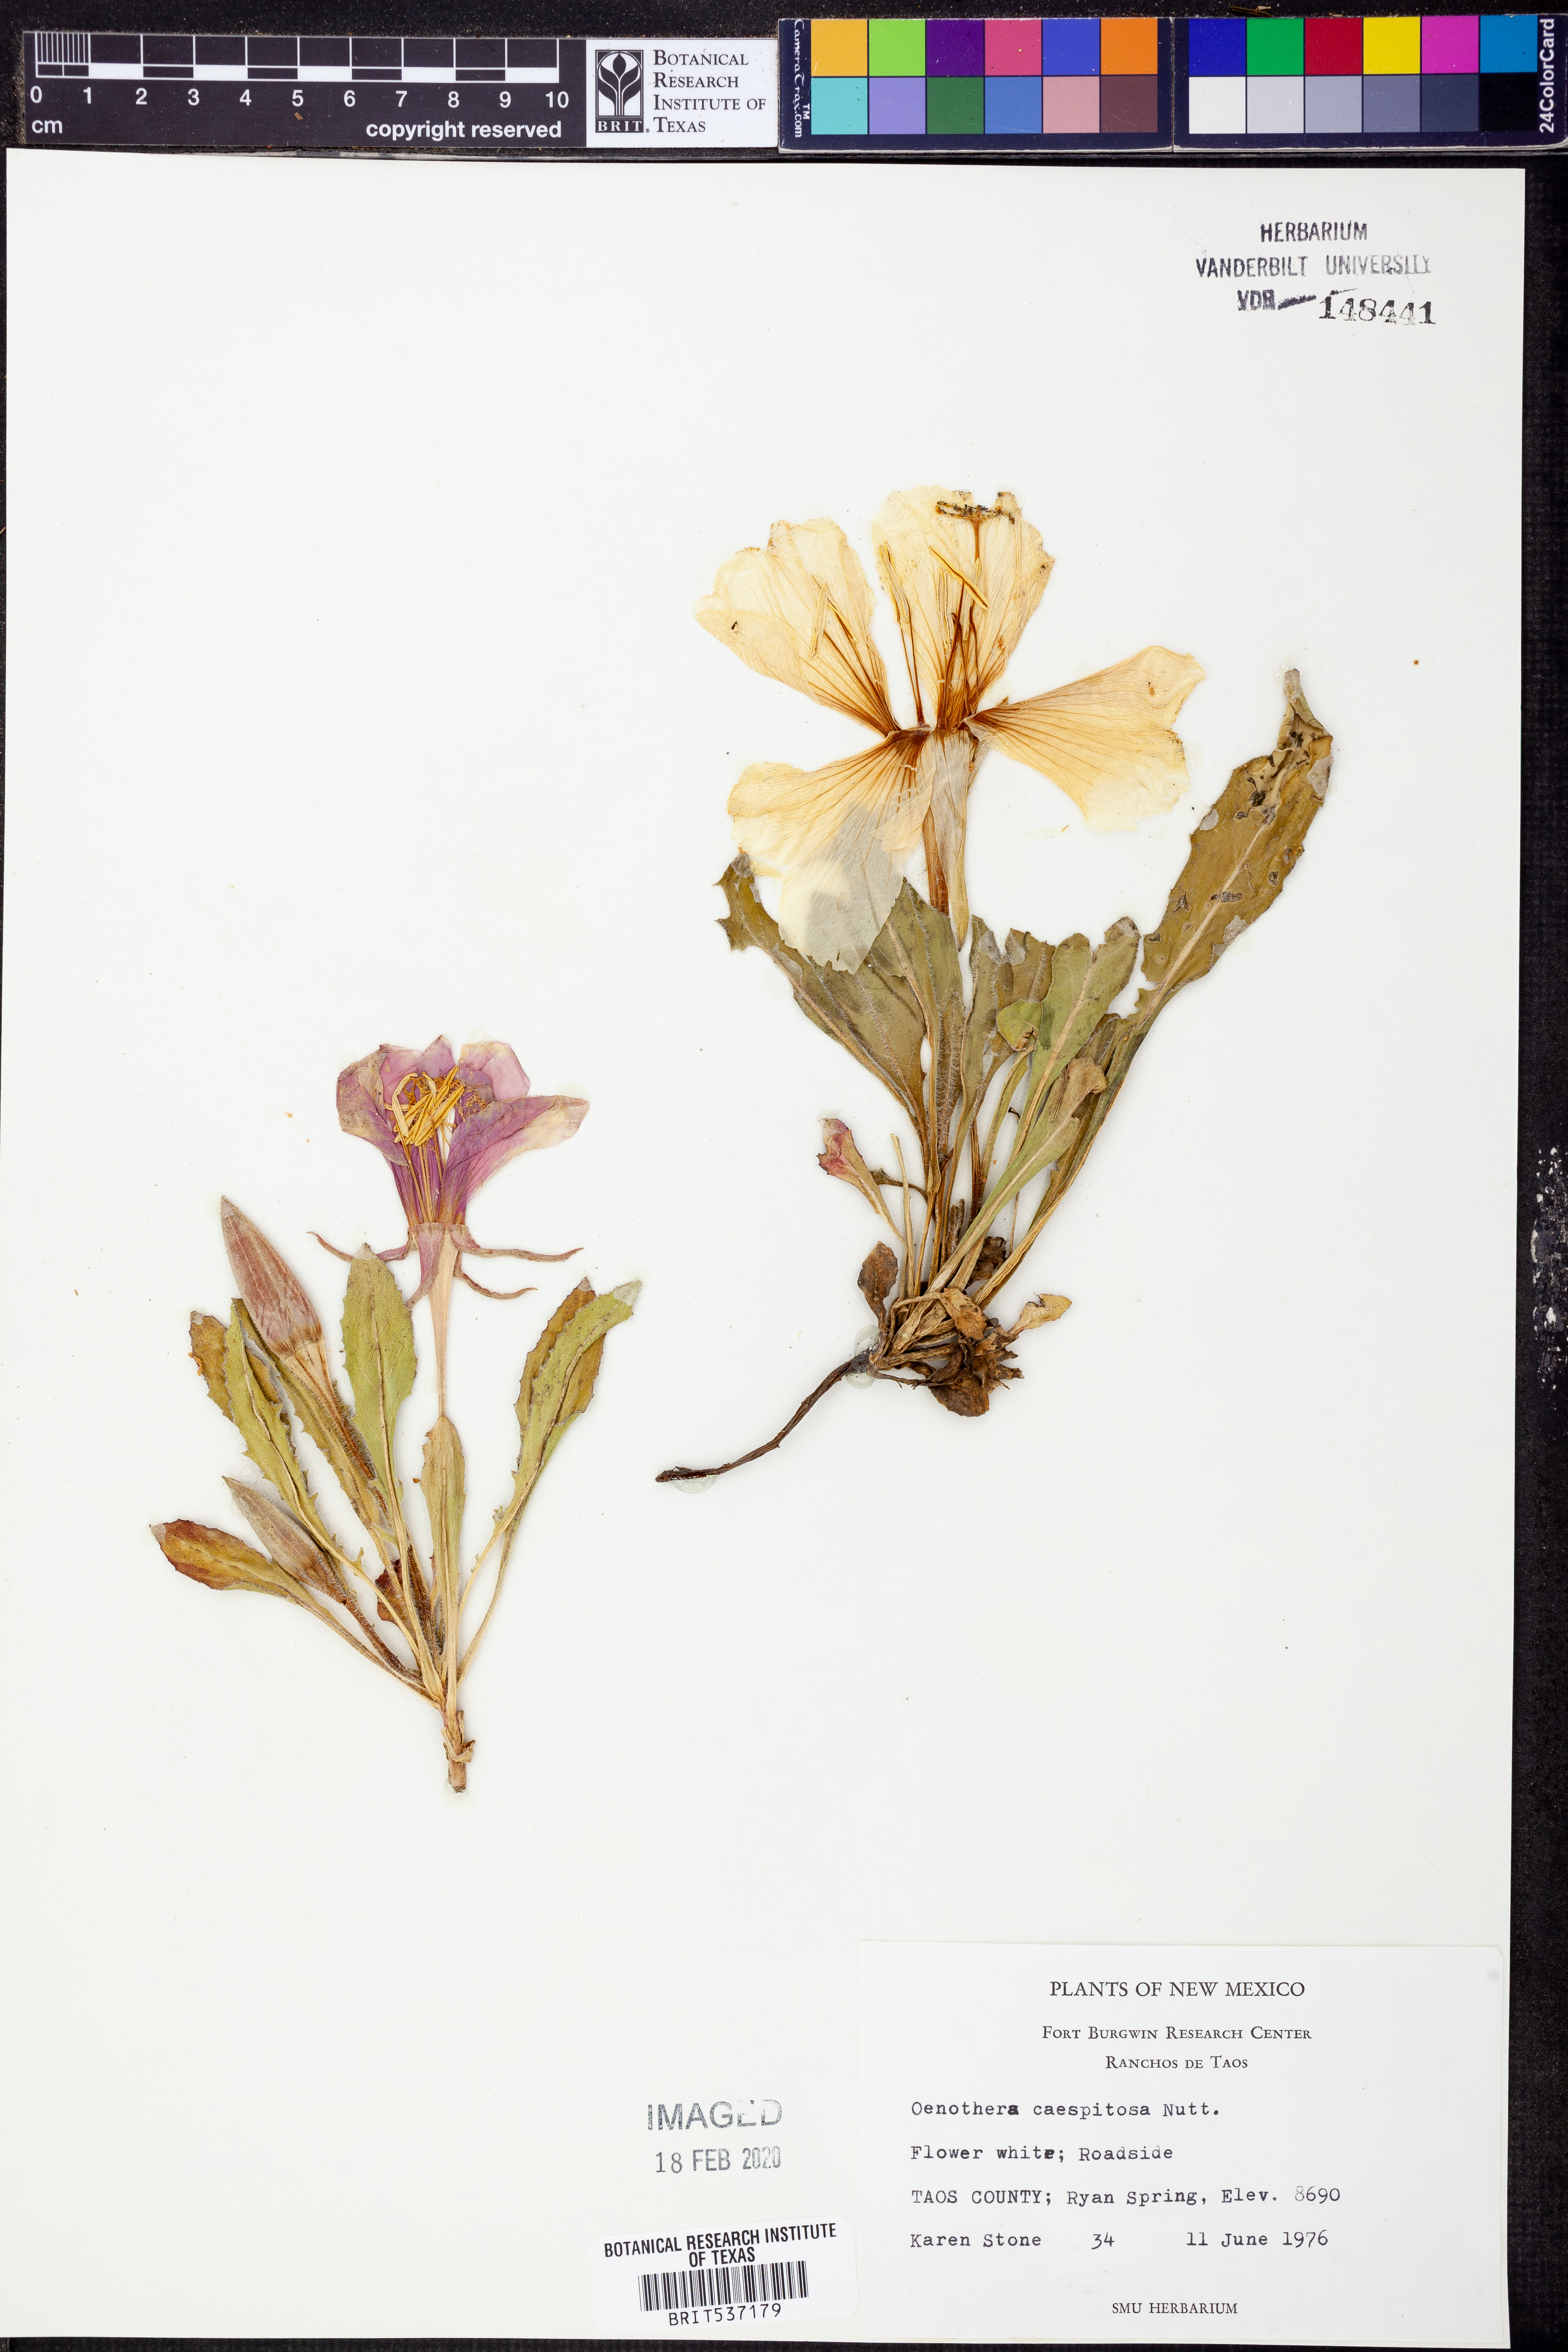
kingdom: Plantae
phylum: Tracheophyta
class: Magnoliopsida
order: Myrtales
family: Onagraceae
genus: Oenothera
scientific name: Oenothera cespitosa
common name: Tufted evening-primrose
